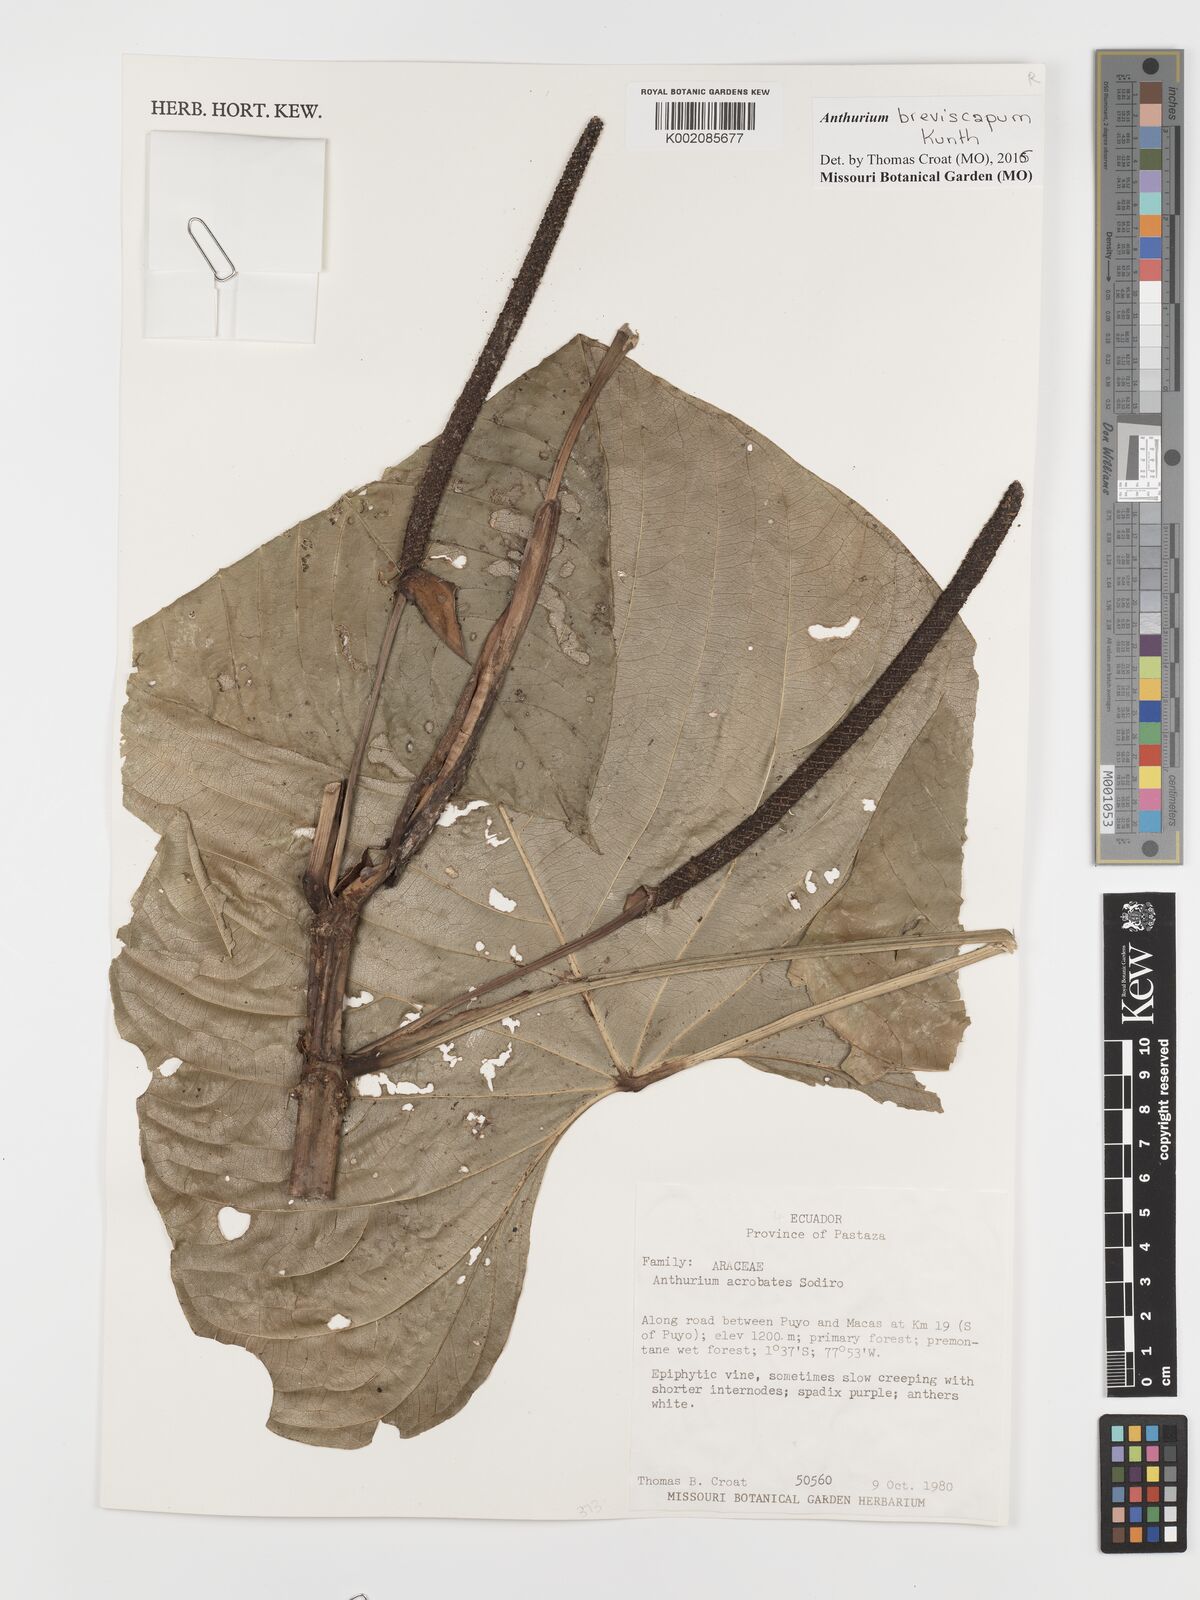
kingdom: Plantae
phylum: Tracheophyta
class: Liliopsida
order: Alismatales
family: Araceae
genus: Anthurium
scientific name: Anthurium breviscapum
